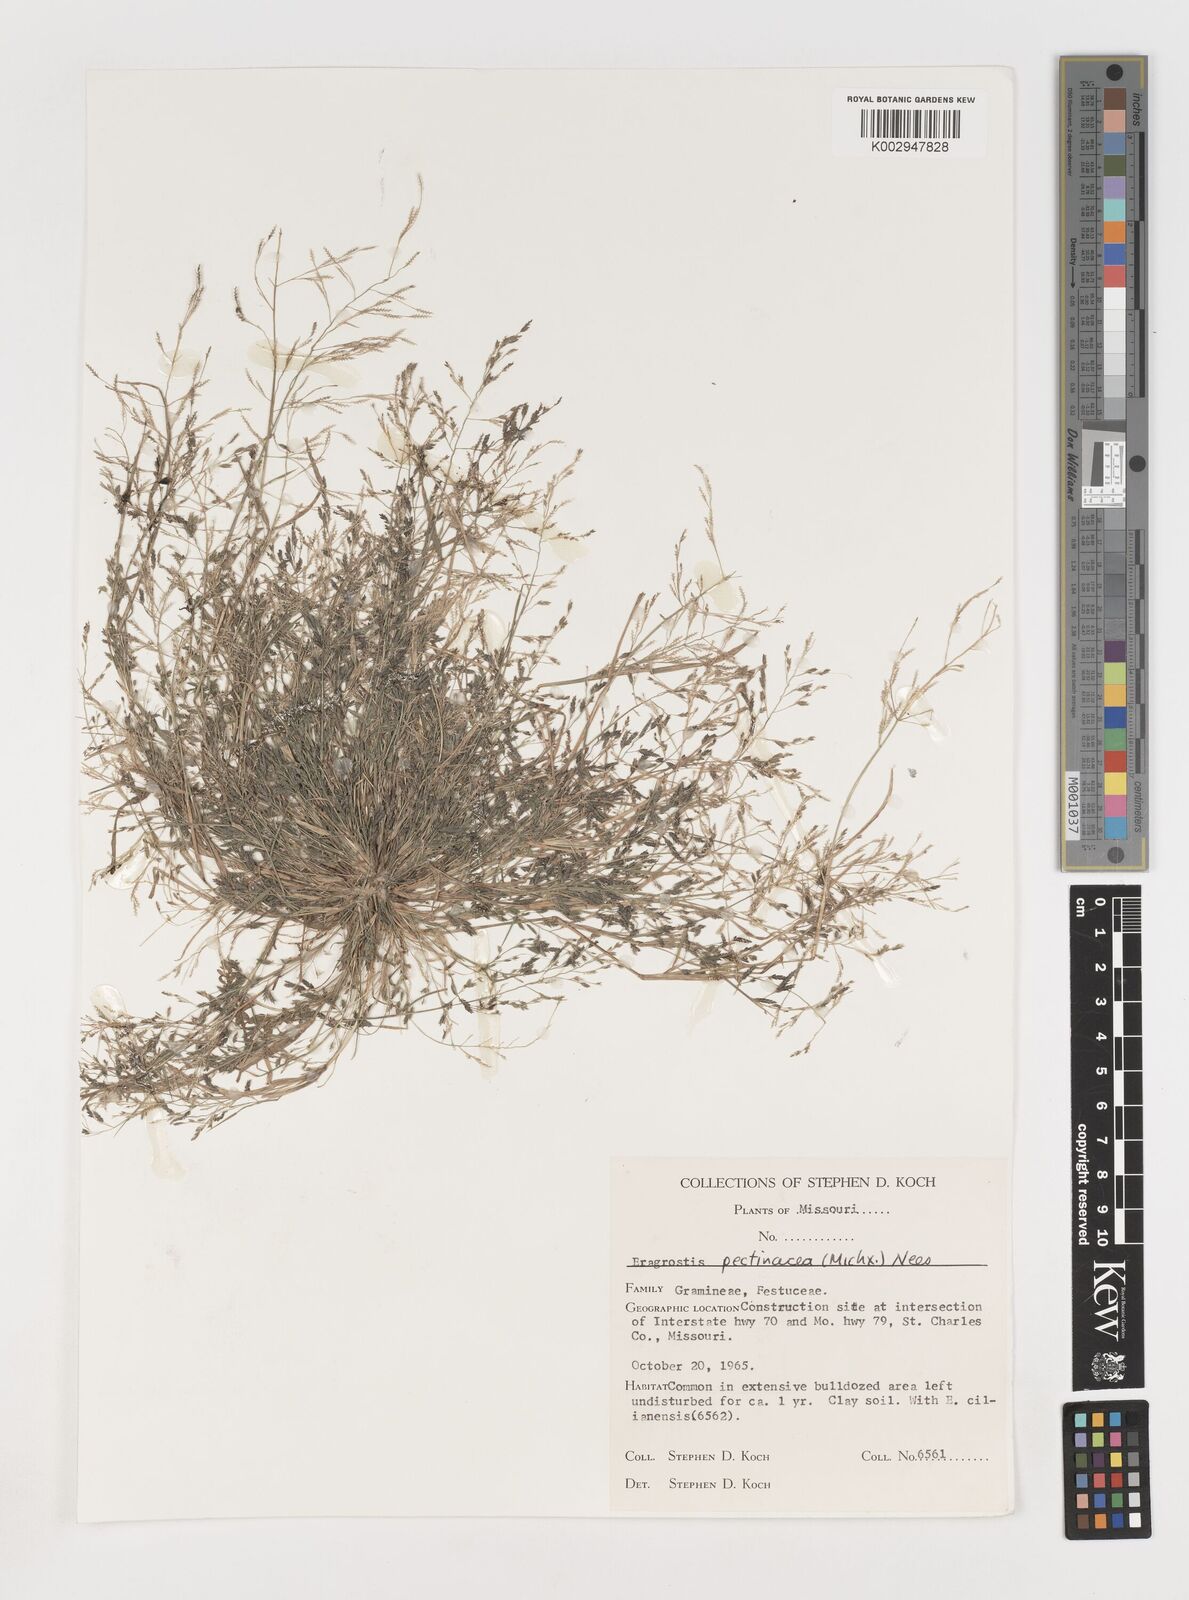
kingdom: Plantae
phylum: Tracheophyta
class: Liliopsida
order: Poales
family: Poaceae
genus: Eragrostis
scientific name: Eragrostis pectinacea
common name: Tufted lovegrass
